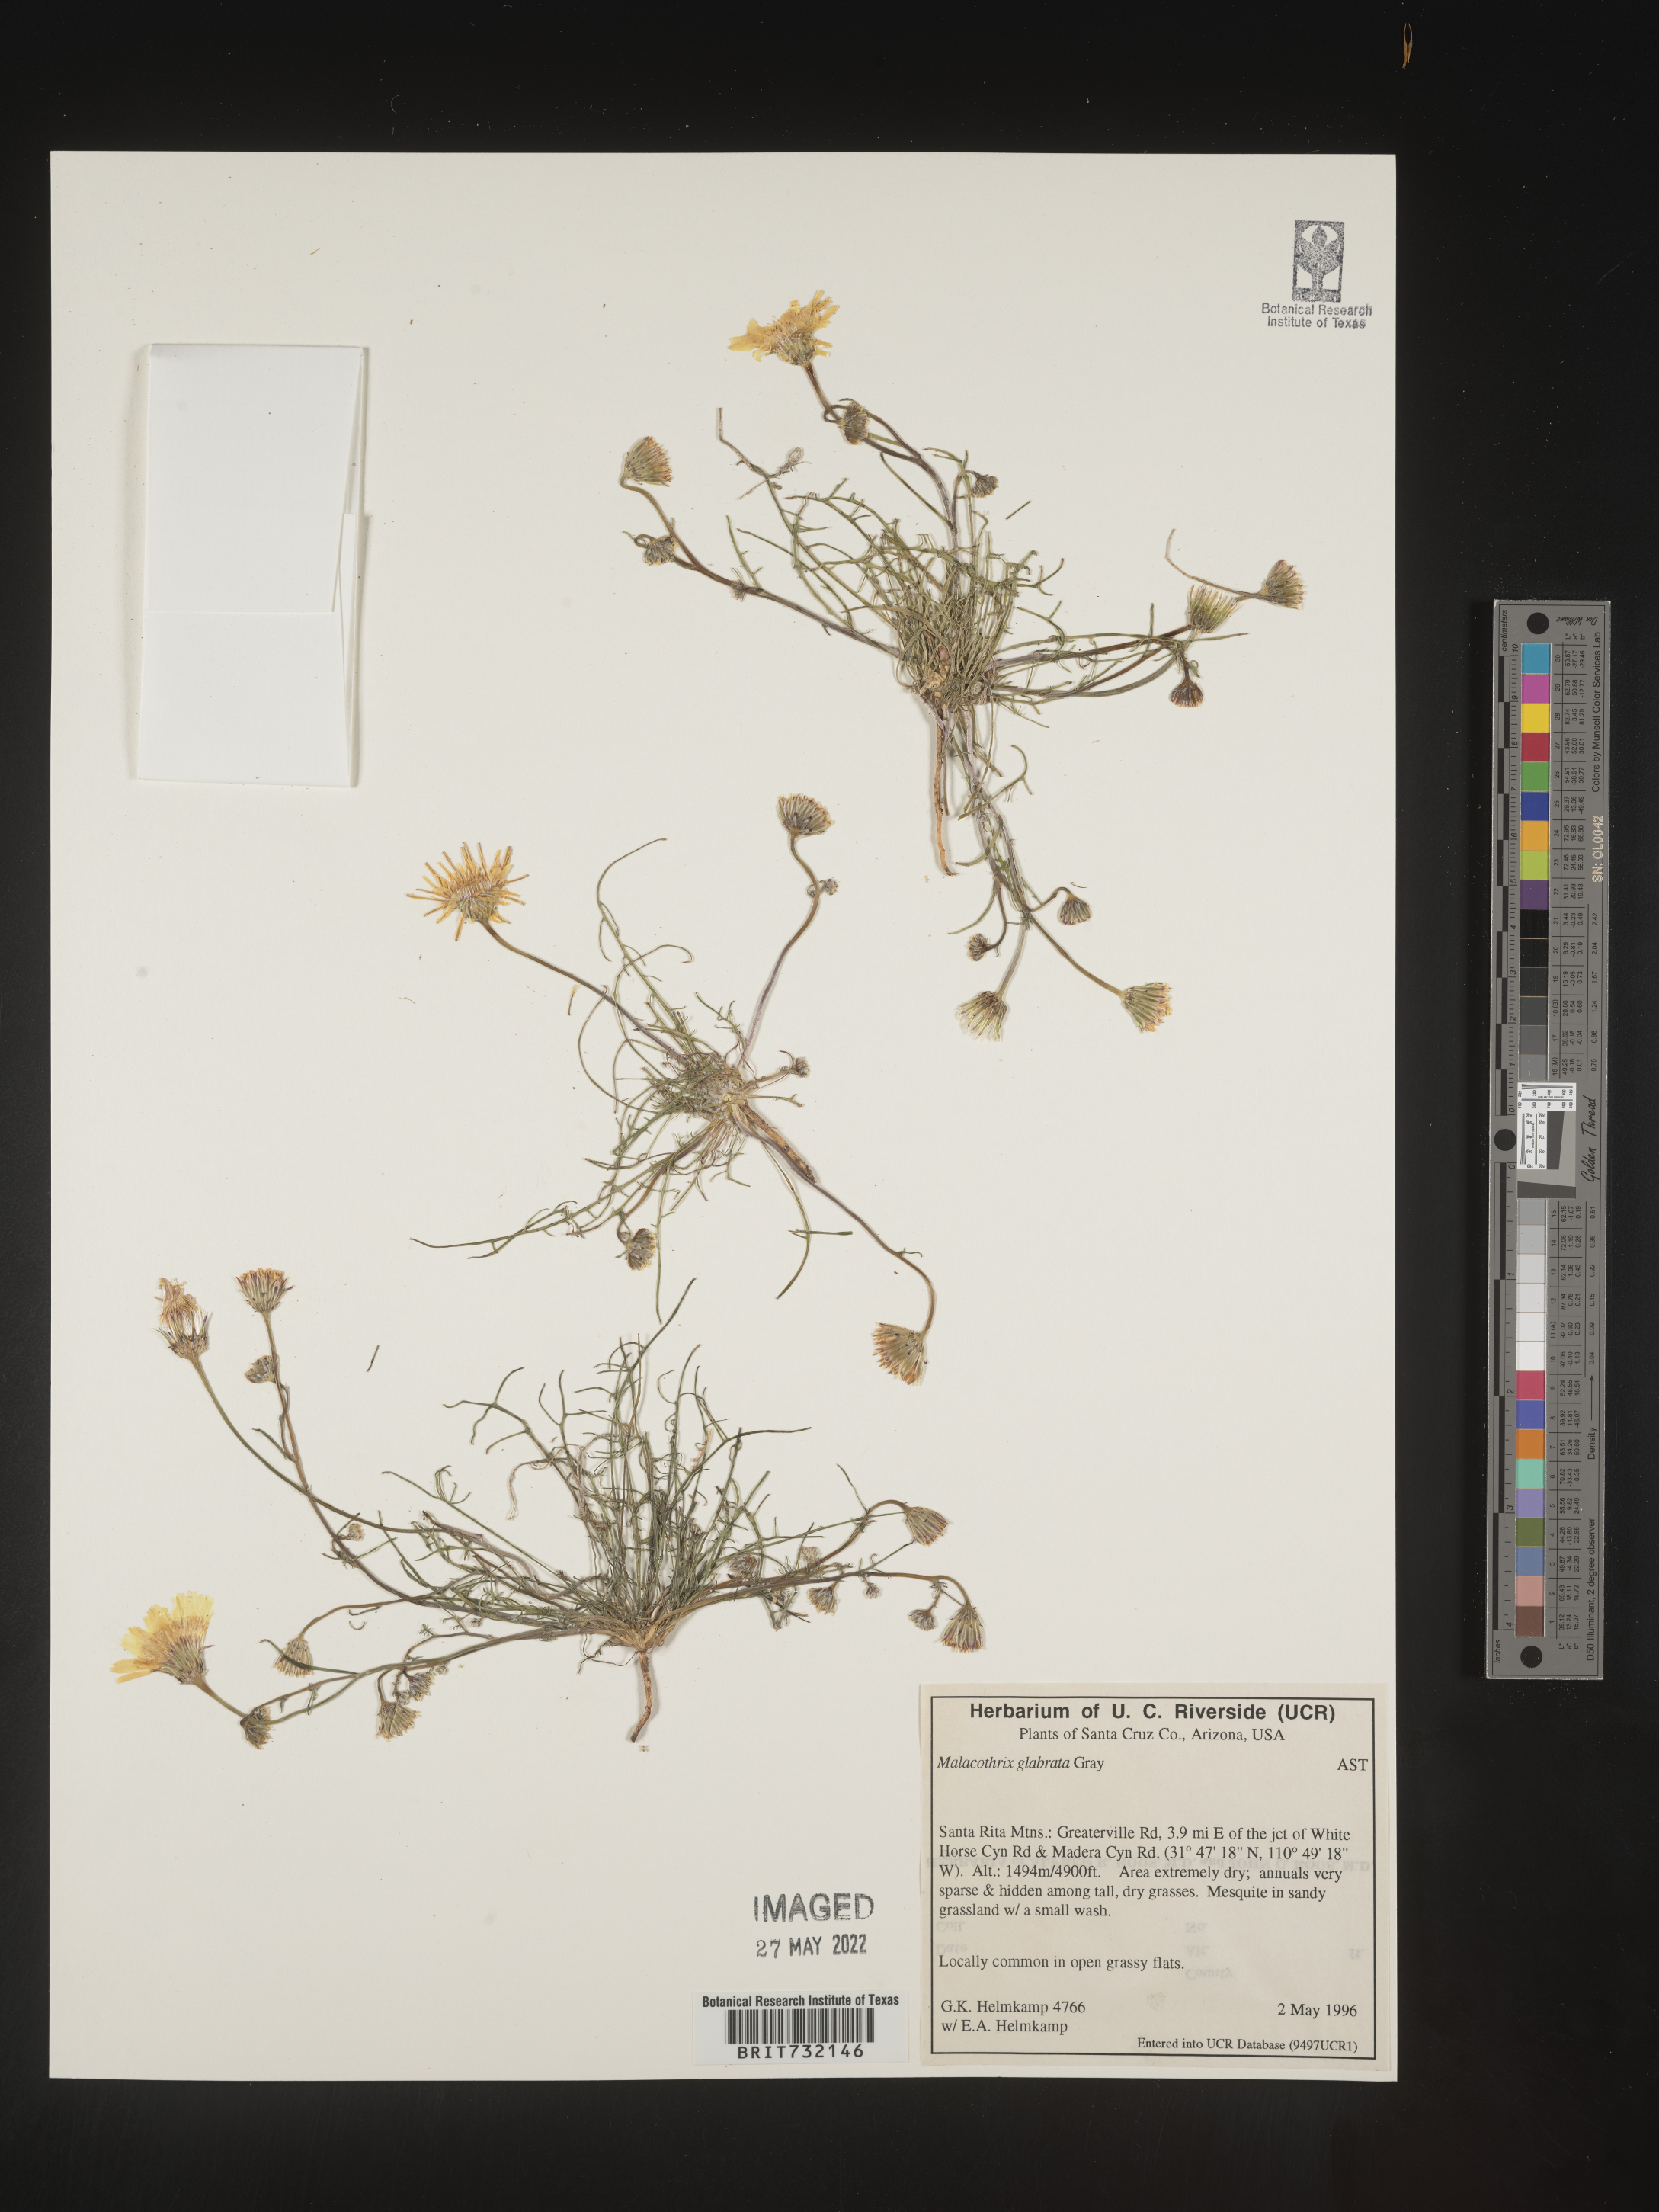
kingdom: Plantae
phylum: Tracheophyta
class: Magnoliopsida
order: Asterales
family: Asteraceae
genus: Malacothrix
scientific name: Malacothrix glabrata
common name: Smooth desert-dandelion
